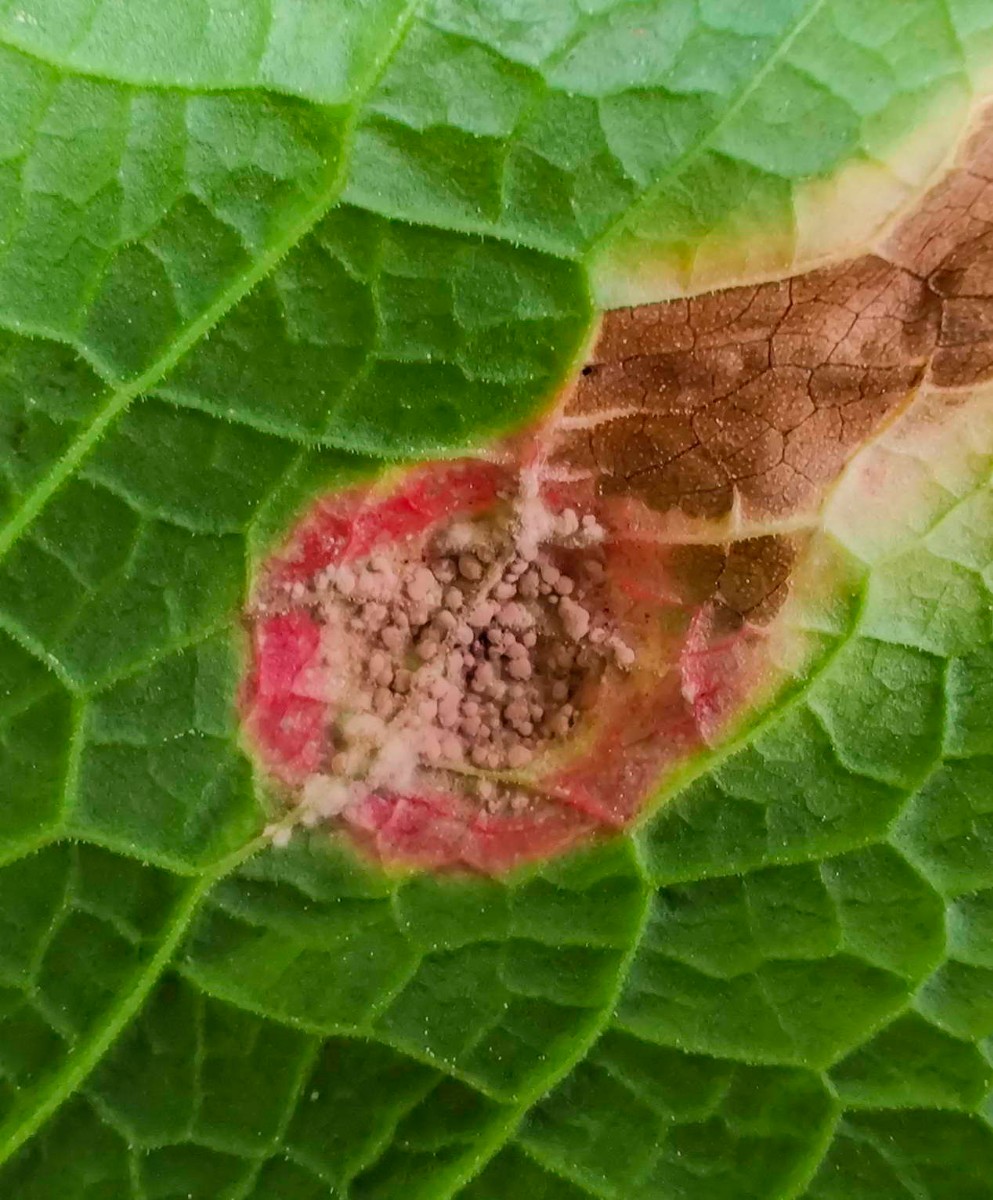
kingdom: Fungi
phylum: Basidiomycota
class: Pucciniomycetes
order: Helicobasidiales
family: Helicobasidiaceae
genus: Helicobasidium
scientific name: Helicobasidium purpureum
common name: purpur-bispebævrehinde
